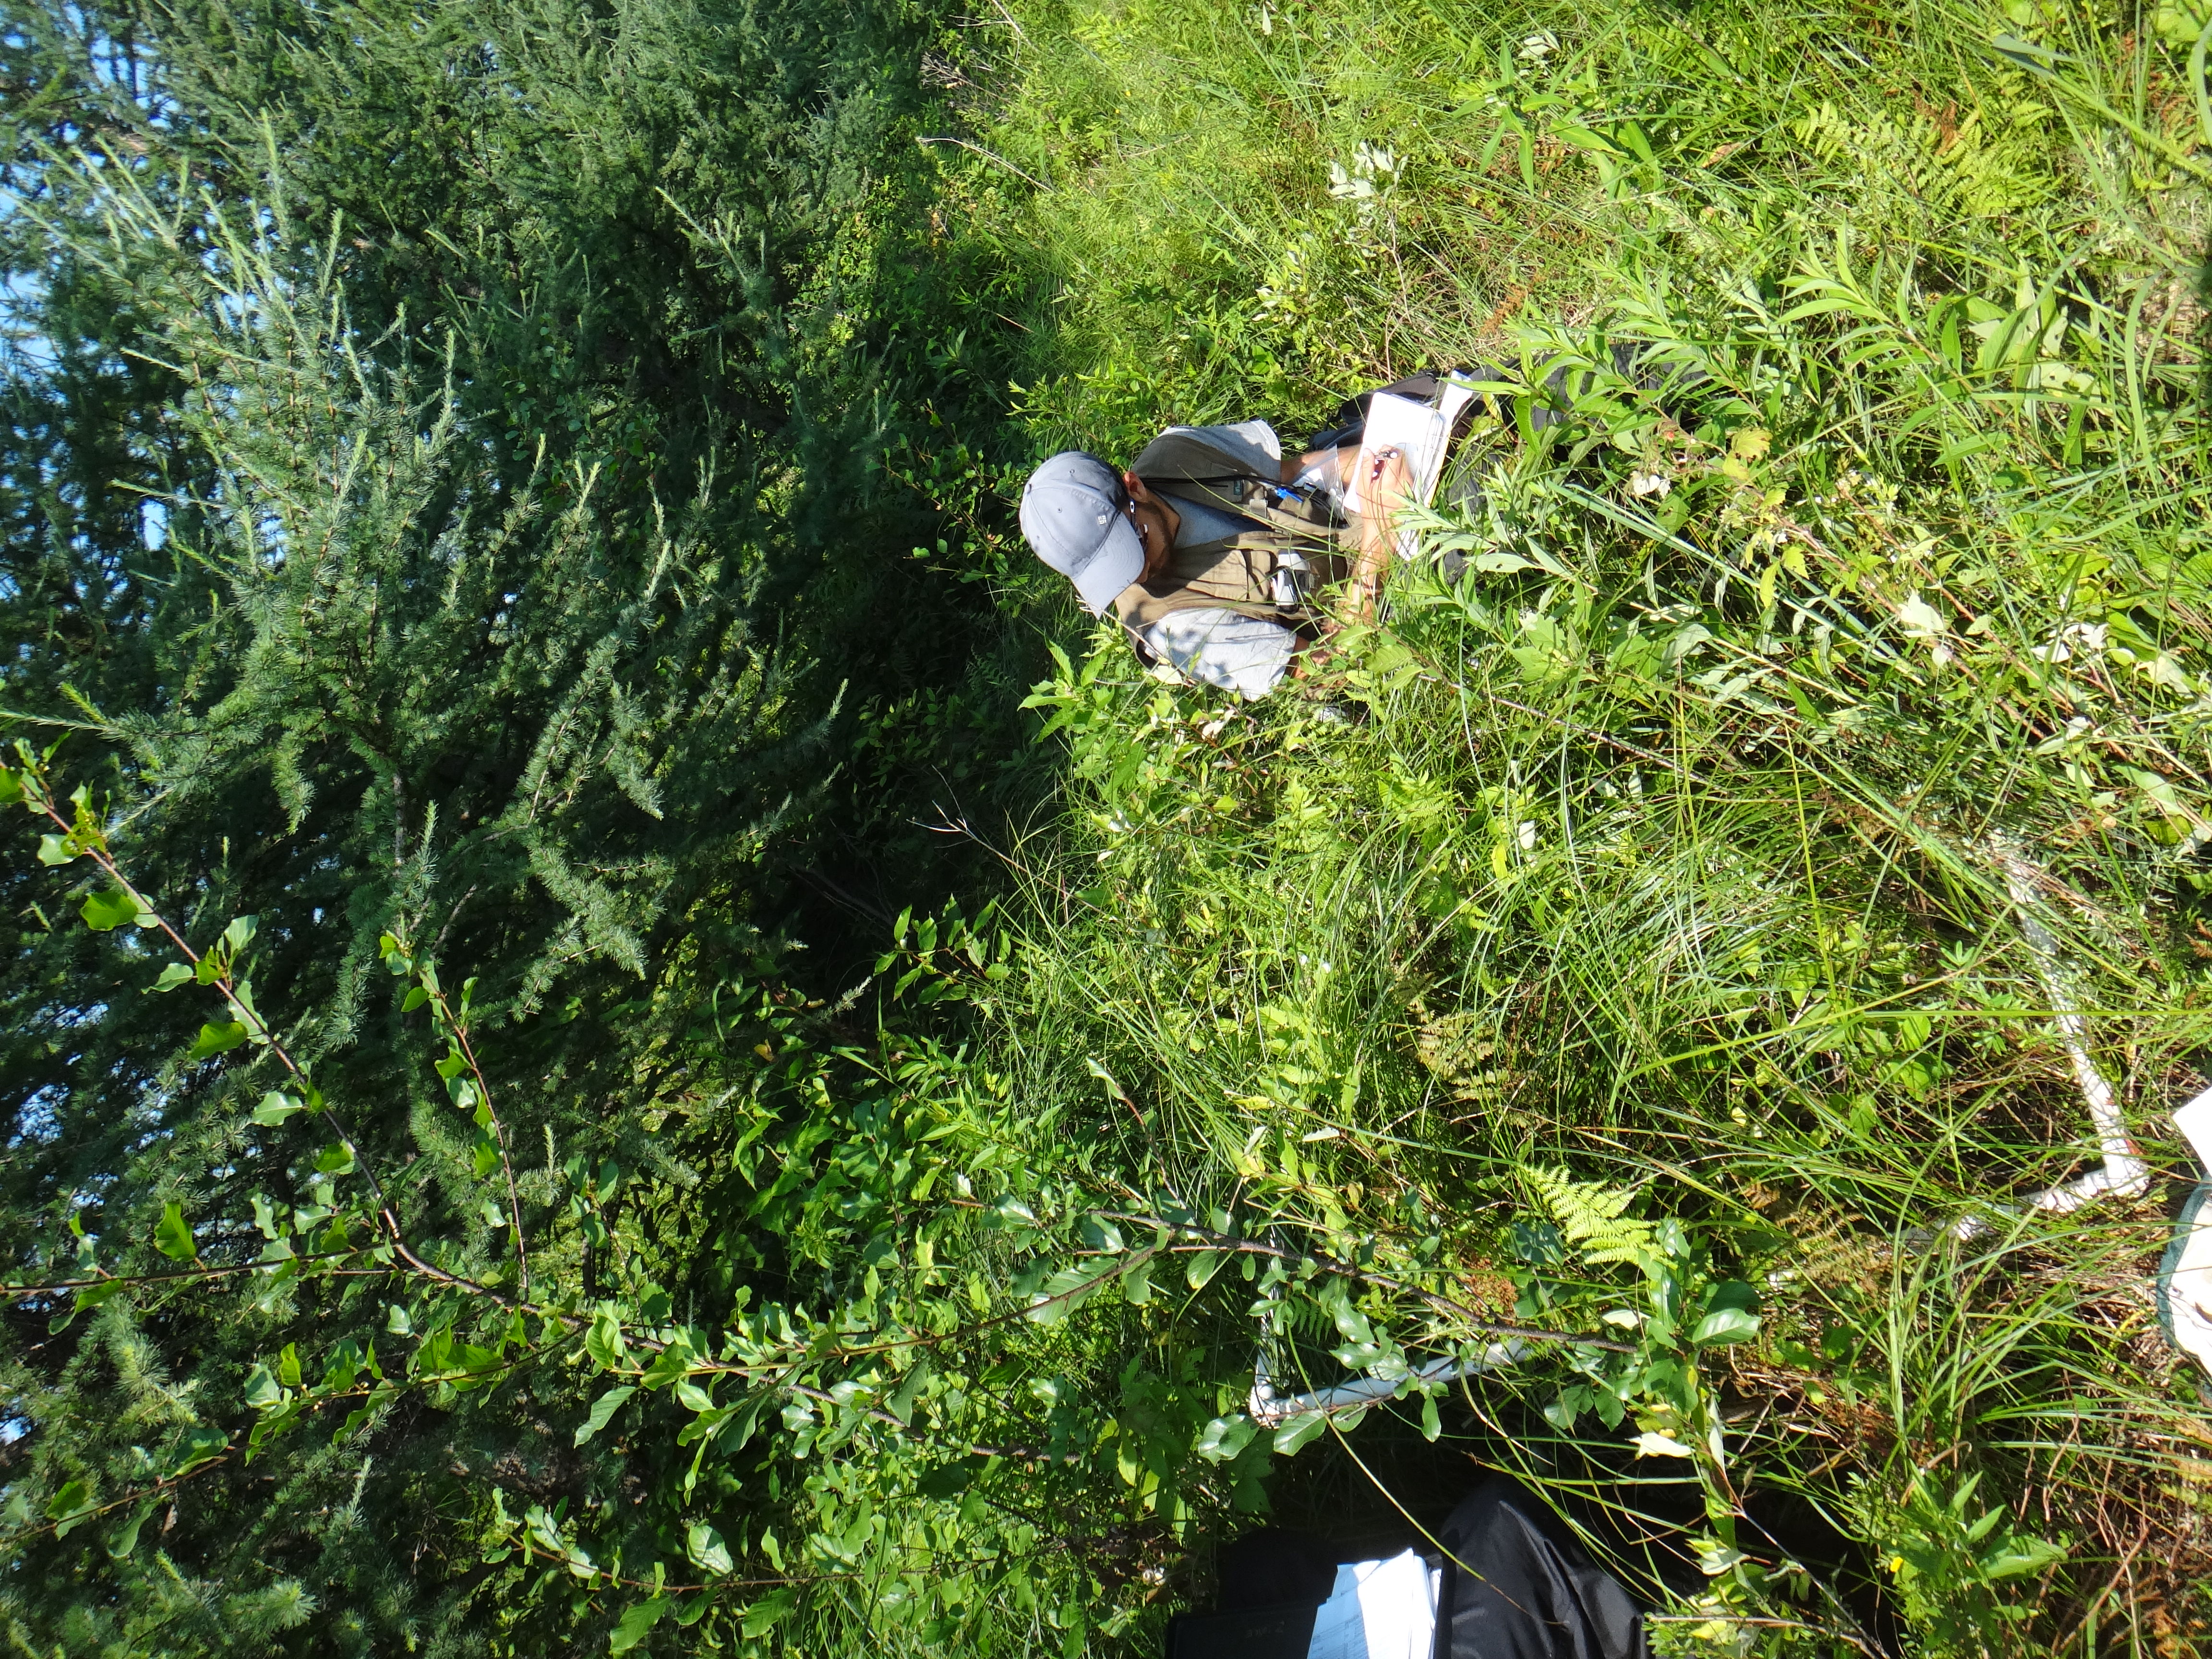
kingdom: Plantae
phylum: Tracheophyta
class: Magnoliopsida
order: Rosales
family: Rosaceae
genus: Dasiphora
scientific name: Dasiphora fruticosa
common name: Shrubby cinquefoil
